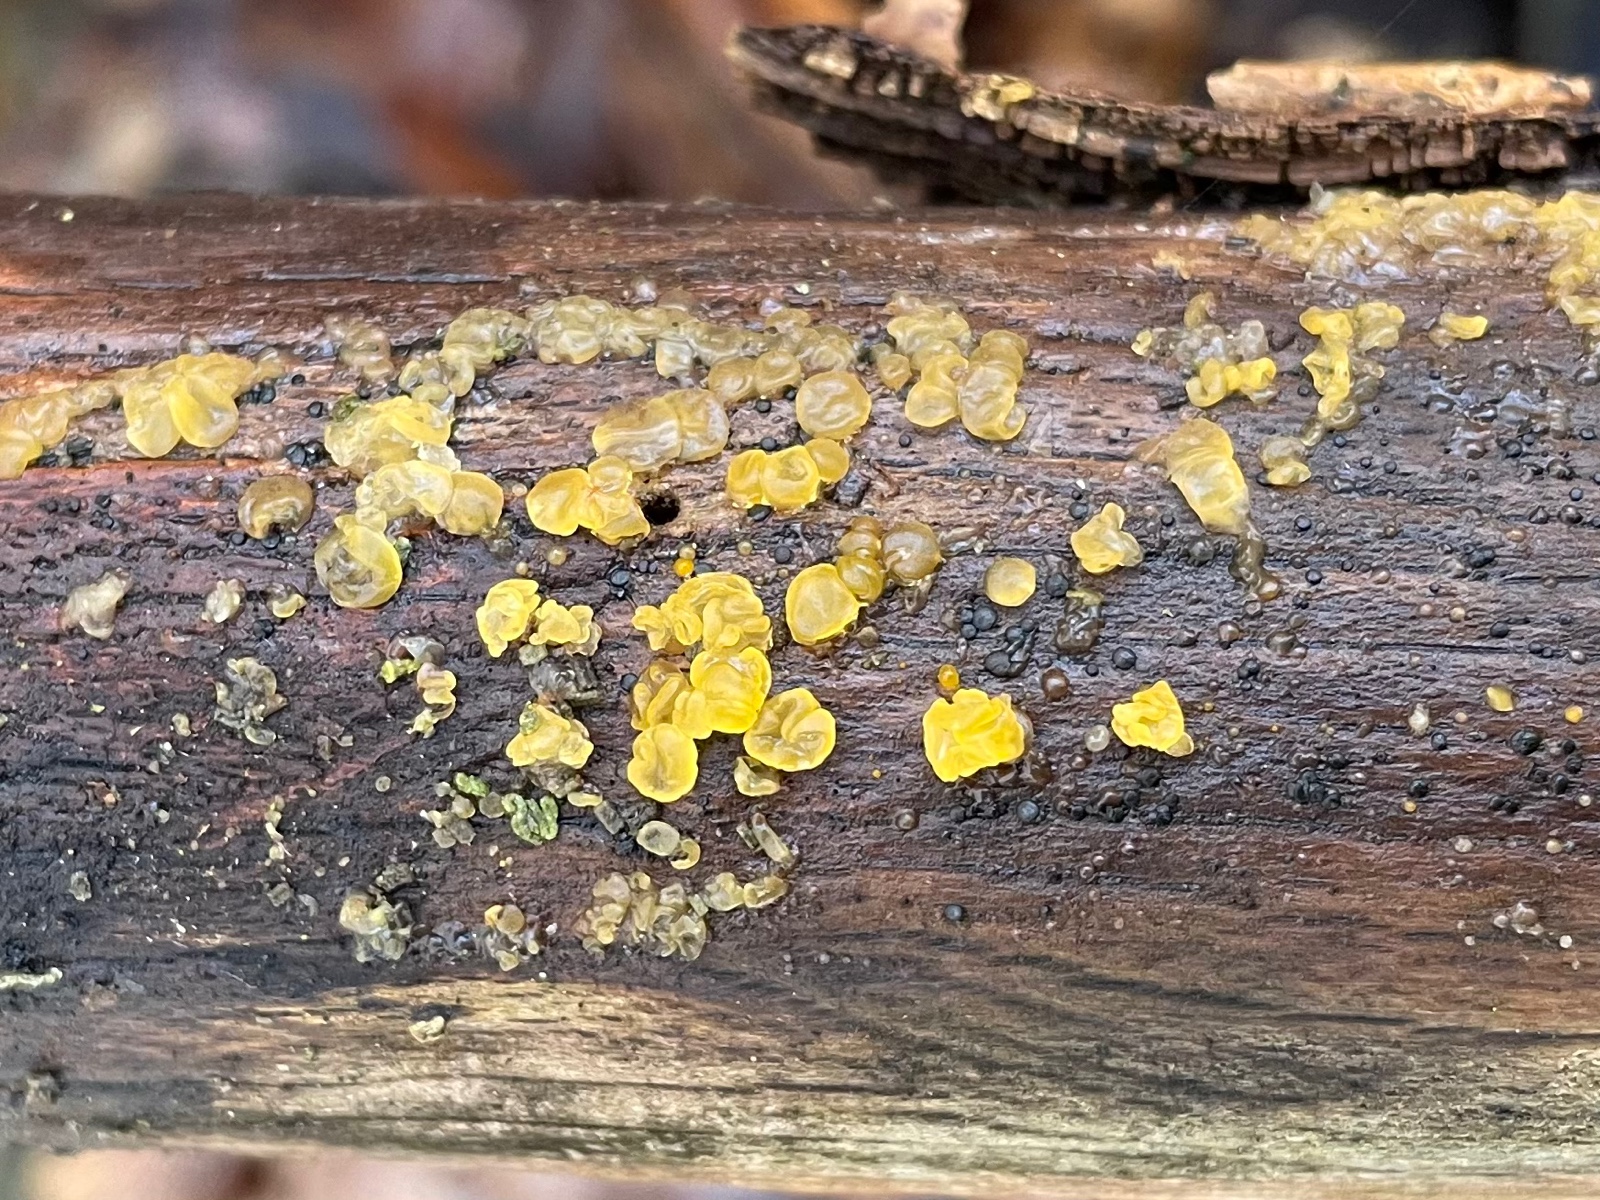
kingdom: Fungi
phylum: Basidiomycota
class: Dacrymycetes
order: Dacrymycetales
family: Dacrymycetaceae
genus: Dacrymyces
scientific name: Dacrymyces lacrymalis
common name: rynket tåresvamp
